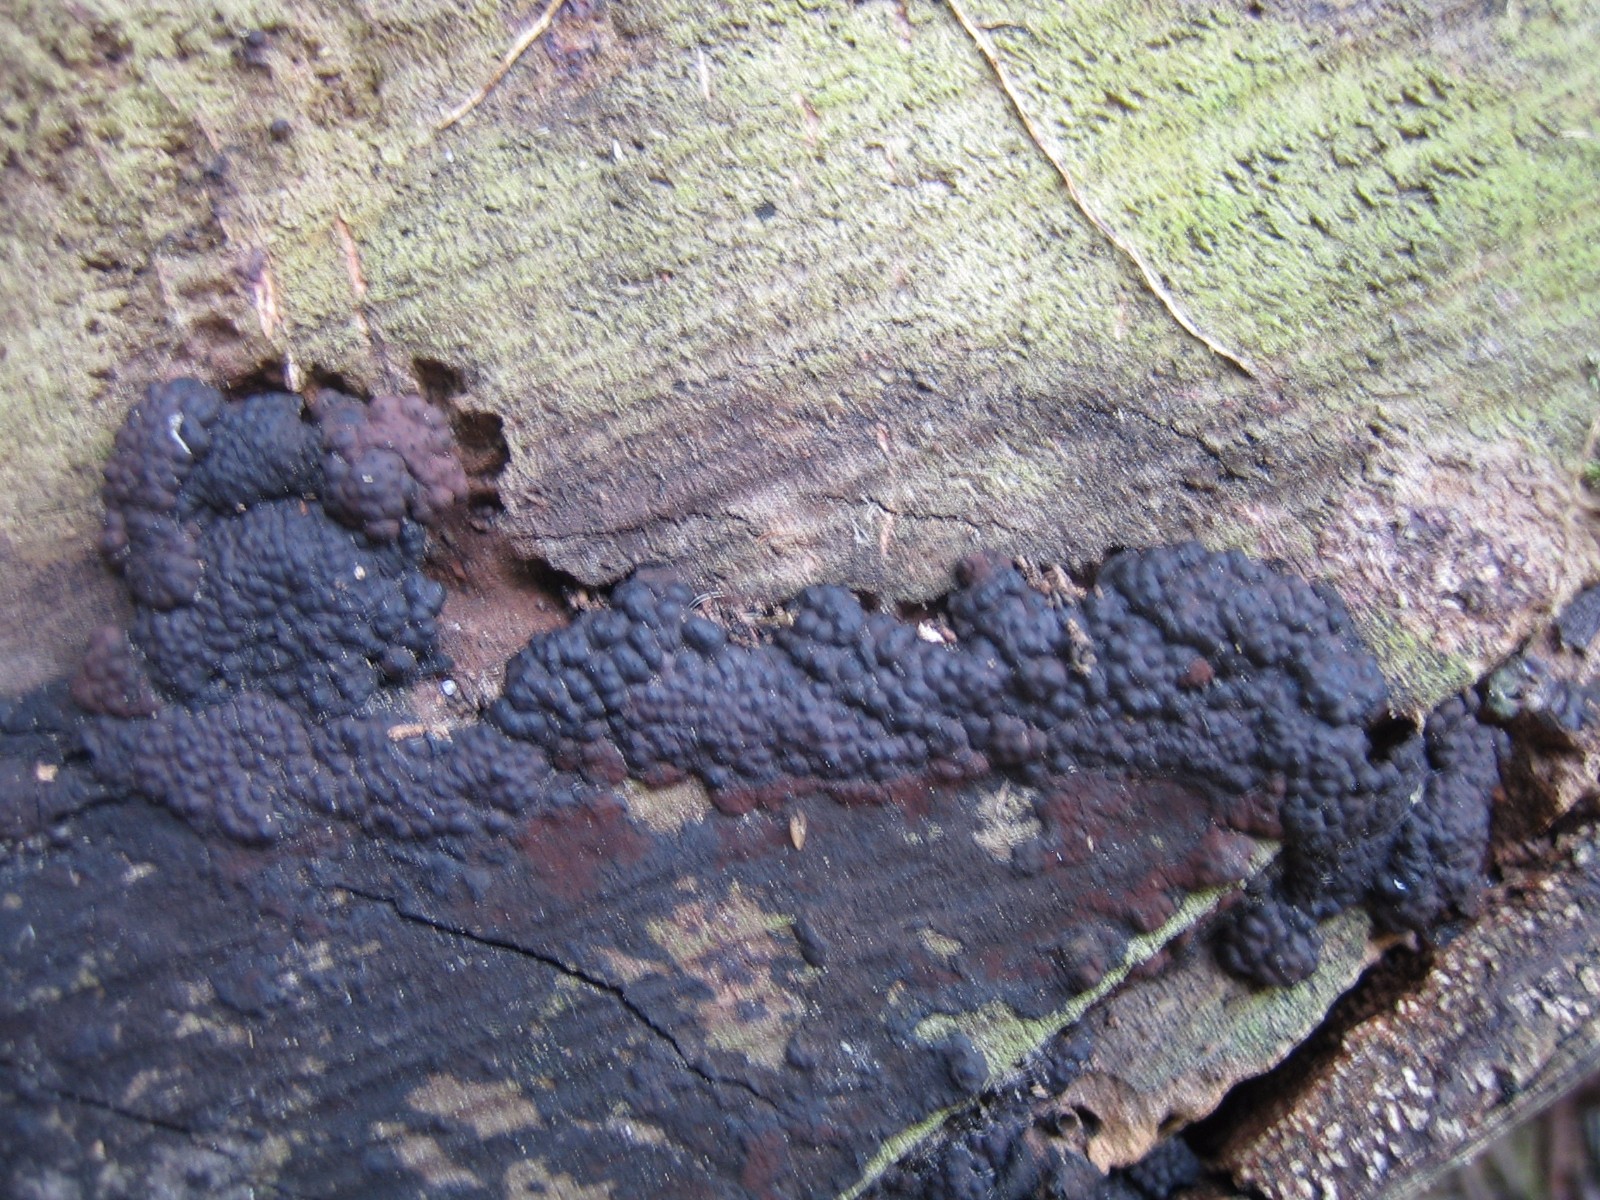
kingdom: Fungi
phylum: Ascomycota
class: Sordariomycetes
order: Xylariales
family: Hypoxylaceae
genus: Jackrogersella
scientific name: Jackrogersella multiformis
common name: foranderlig kulbær
